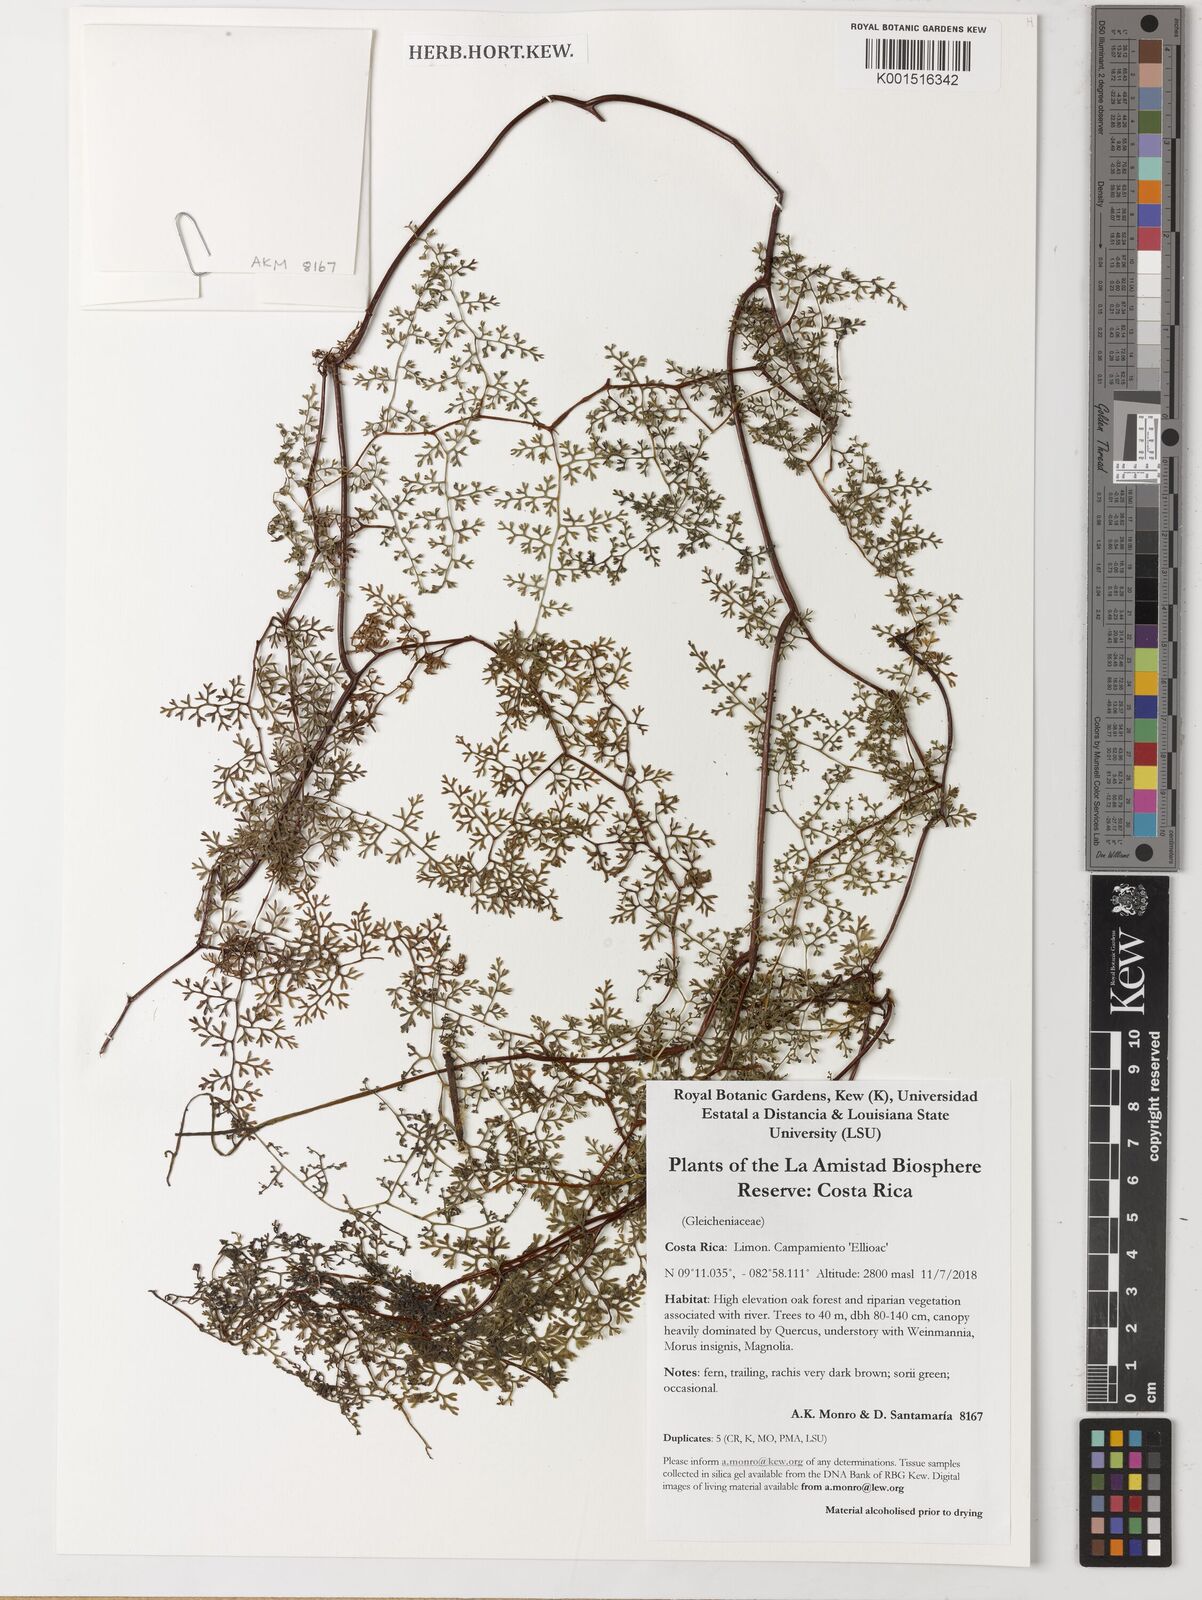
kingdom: Plantae
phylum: Tracheophyta
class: Polypodiopsida
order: Gleicheniales
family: Gleicheniaceae
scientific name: Gleicheniaceae
